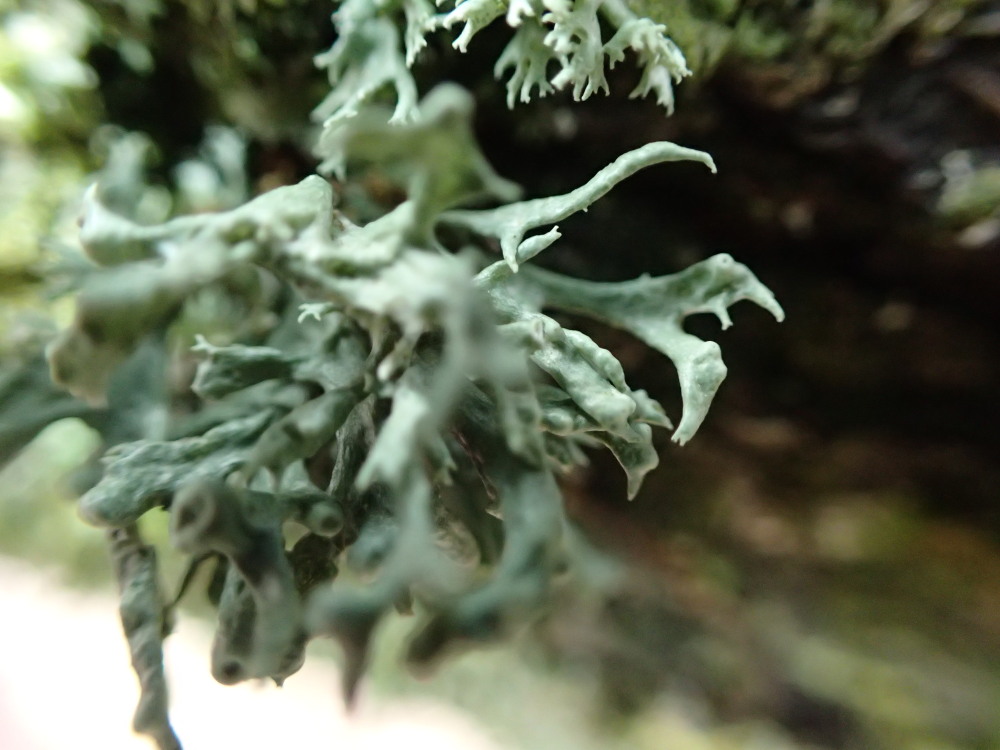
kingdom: Fungi
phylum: Ascomycota
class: Lecanoromycetes
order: Lecanorales
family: Parmeliaceae
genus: Evernia
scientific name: Evernia prunastri
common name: almindelig slåenlav
